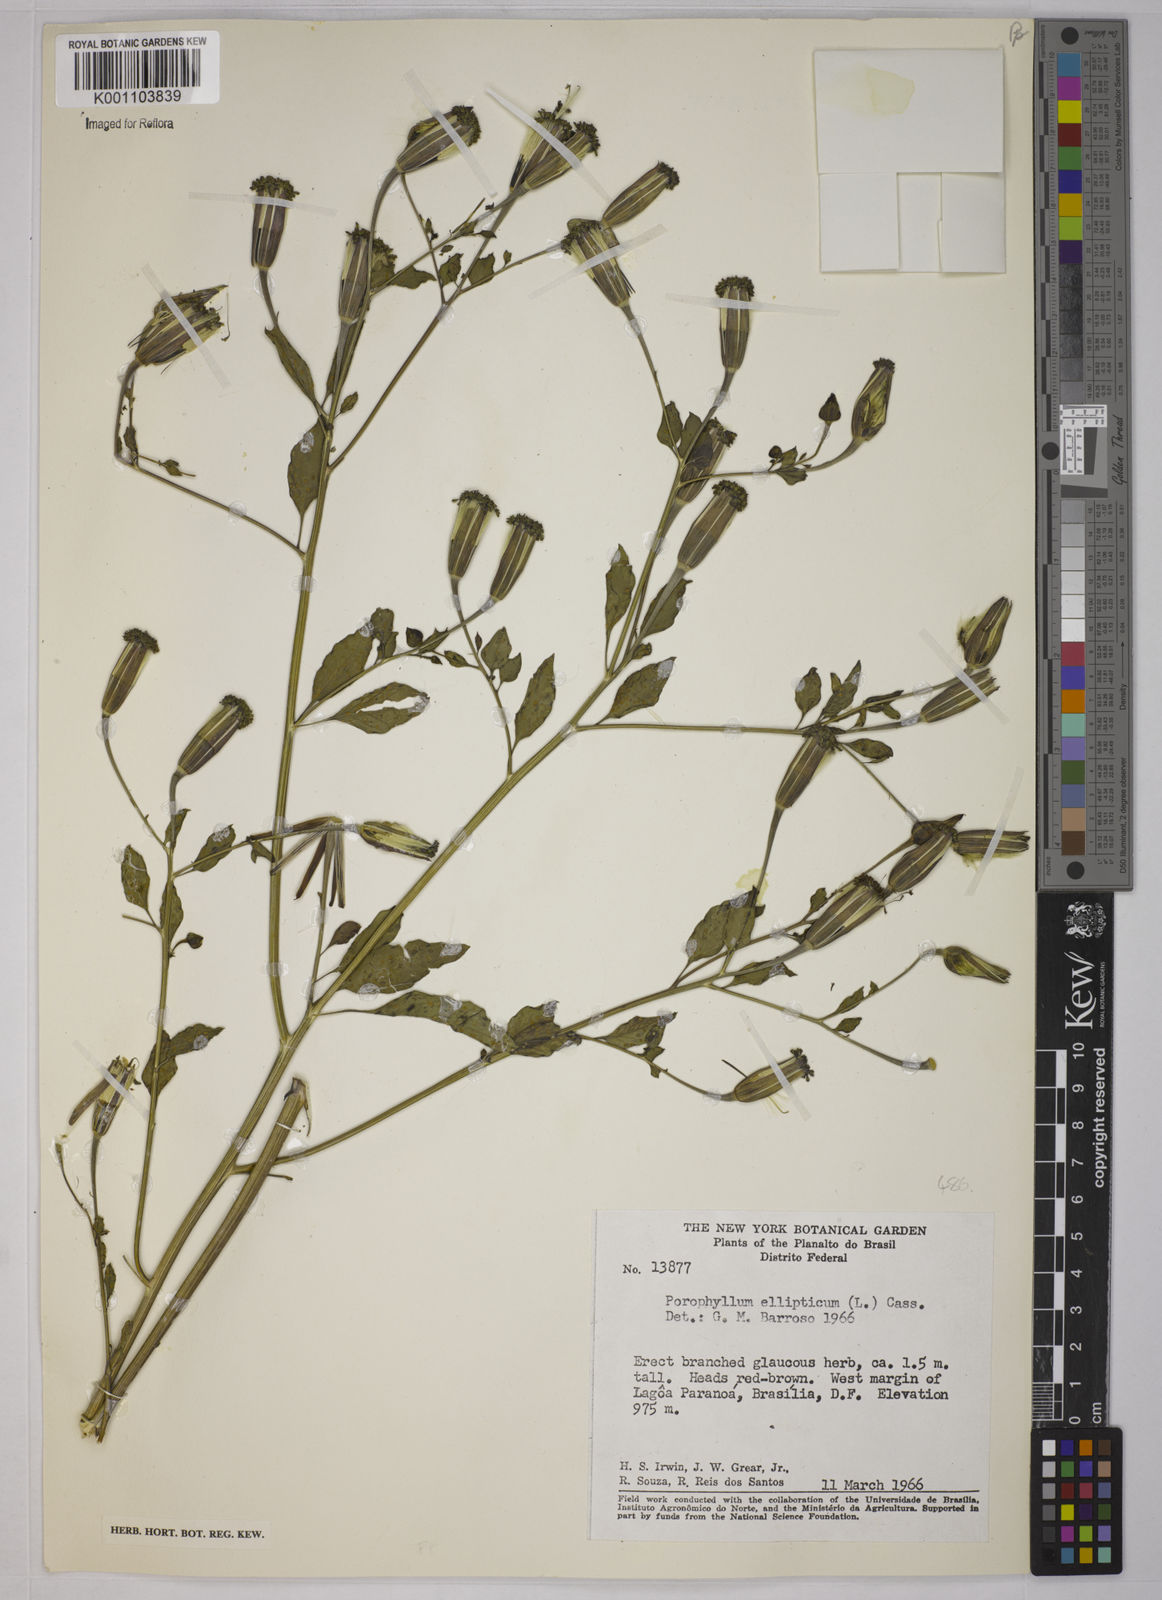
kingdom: Plantae
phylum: Tracheophyta
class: Magnoliopsida
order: Asterales
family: Asteraceae
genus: Porophyllum
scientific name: Porophyllum ruderale
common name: Yerba porosa
